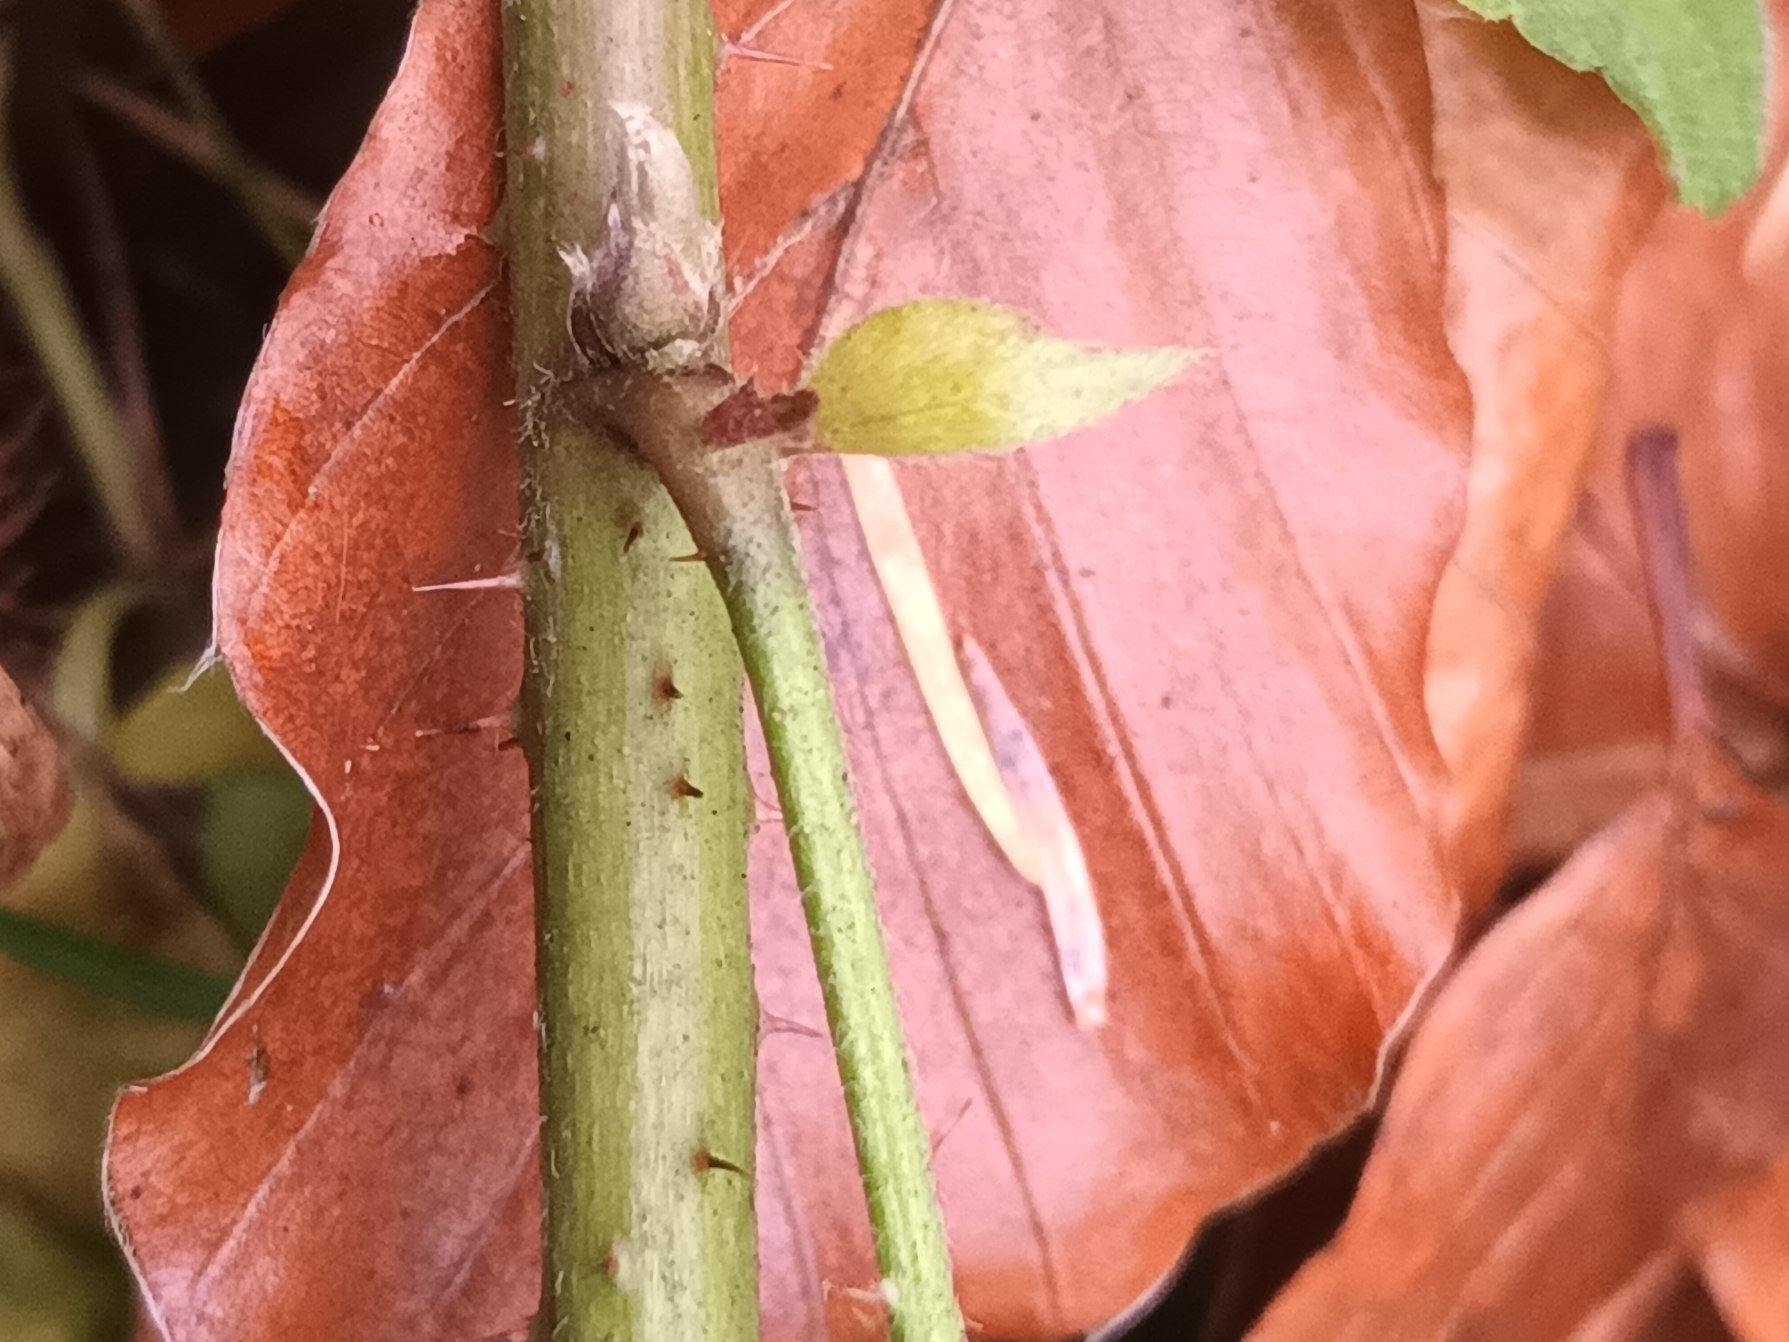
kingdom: Plantae
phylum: Tracheophyta
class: Magnoliopsida
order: Rosales
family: Rosaceae
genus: Rubus
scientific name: Rubus radula
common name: Rasperu brombær
